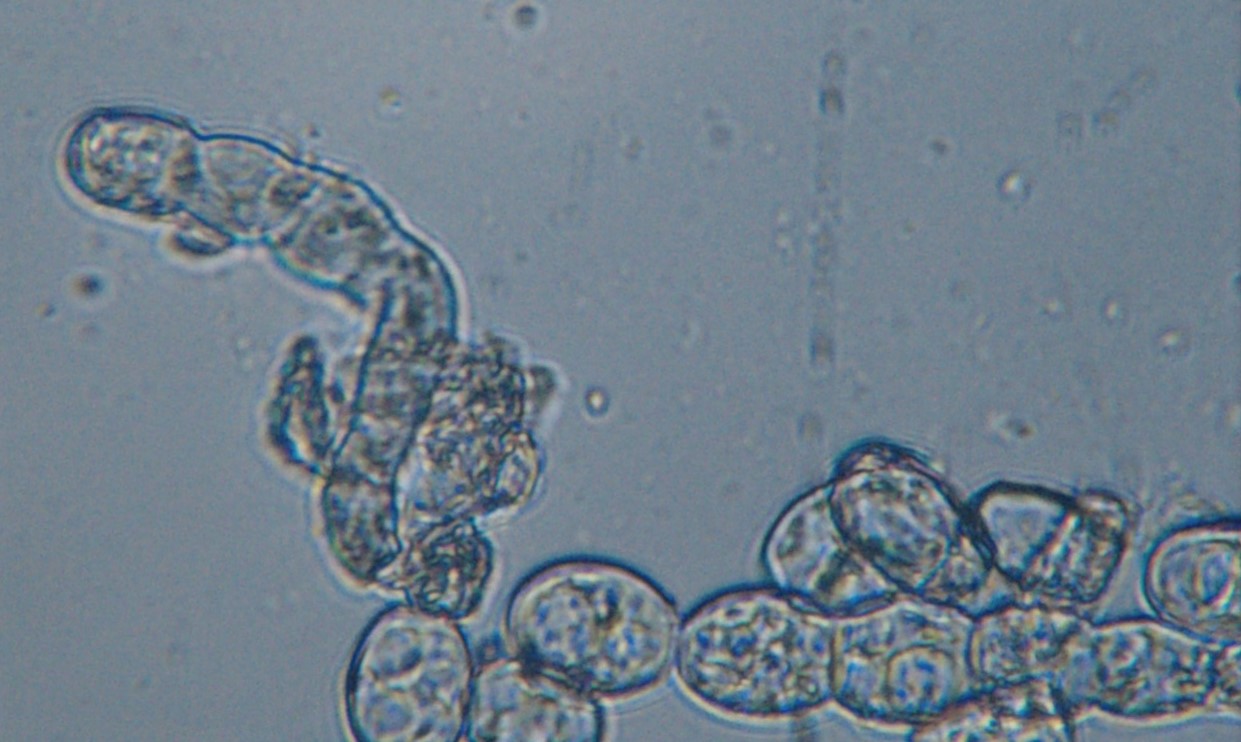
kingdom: Fungi
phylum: Ascomycota
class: Leotiomycetes
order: Helotiales
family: Erysiphaceae
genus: Podosphaera
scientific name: Podosphaera pannosa
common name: Rose mildew
